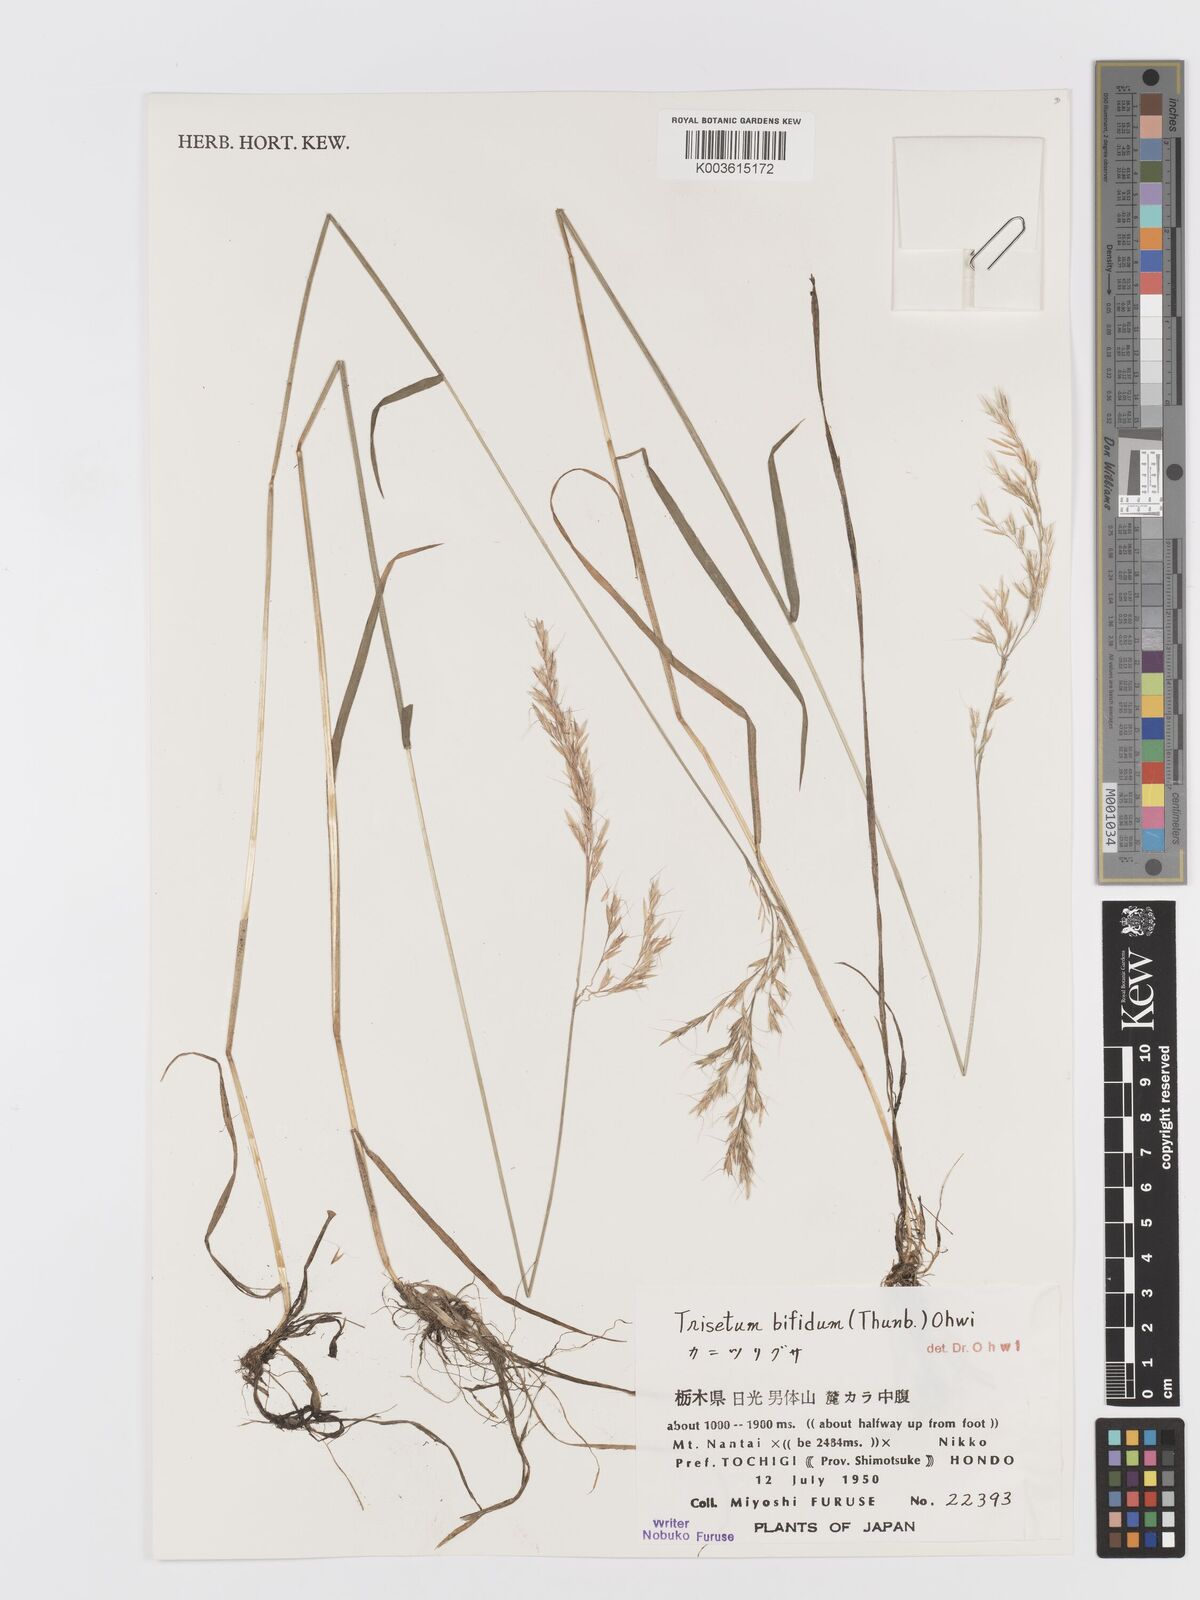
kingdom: Plantae
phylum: Tracheophyta
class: Liliopsida
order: Poales
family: Poaceae
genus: Sibirotrisetum
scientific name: Sibirotrisetum bifidum
